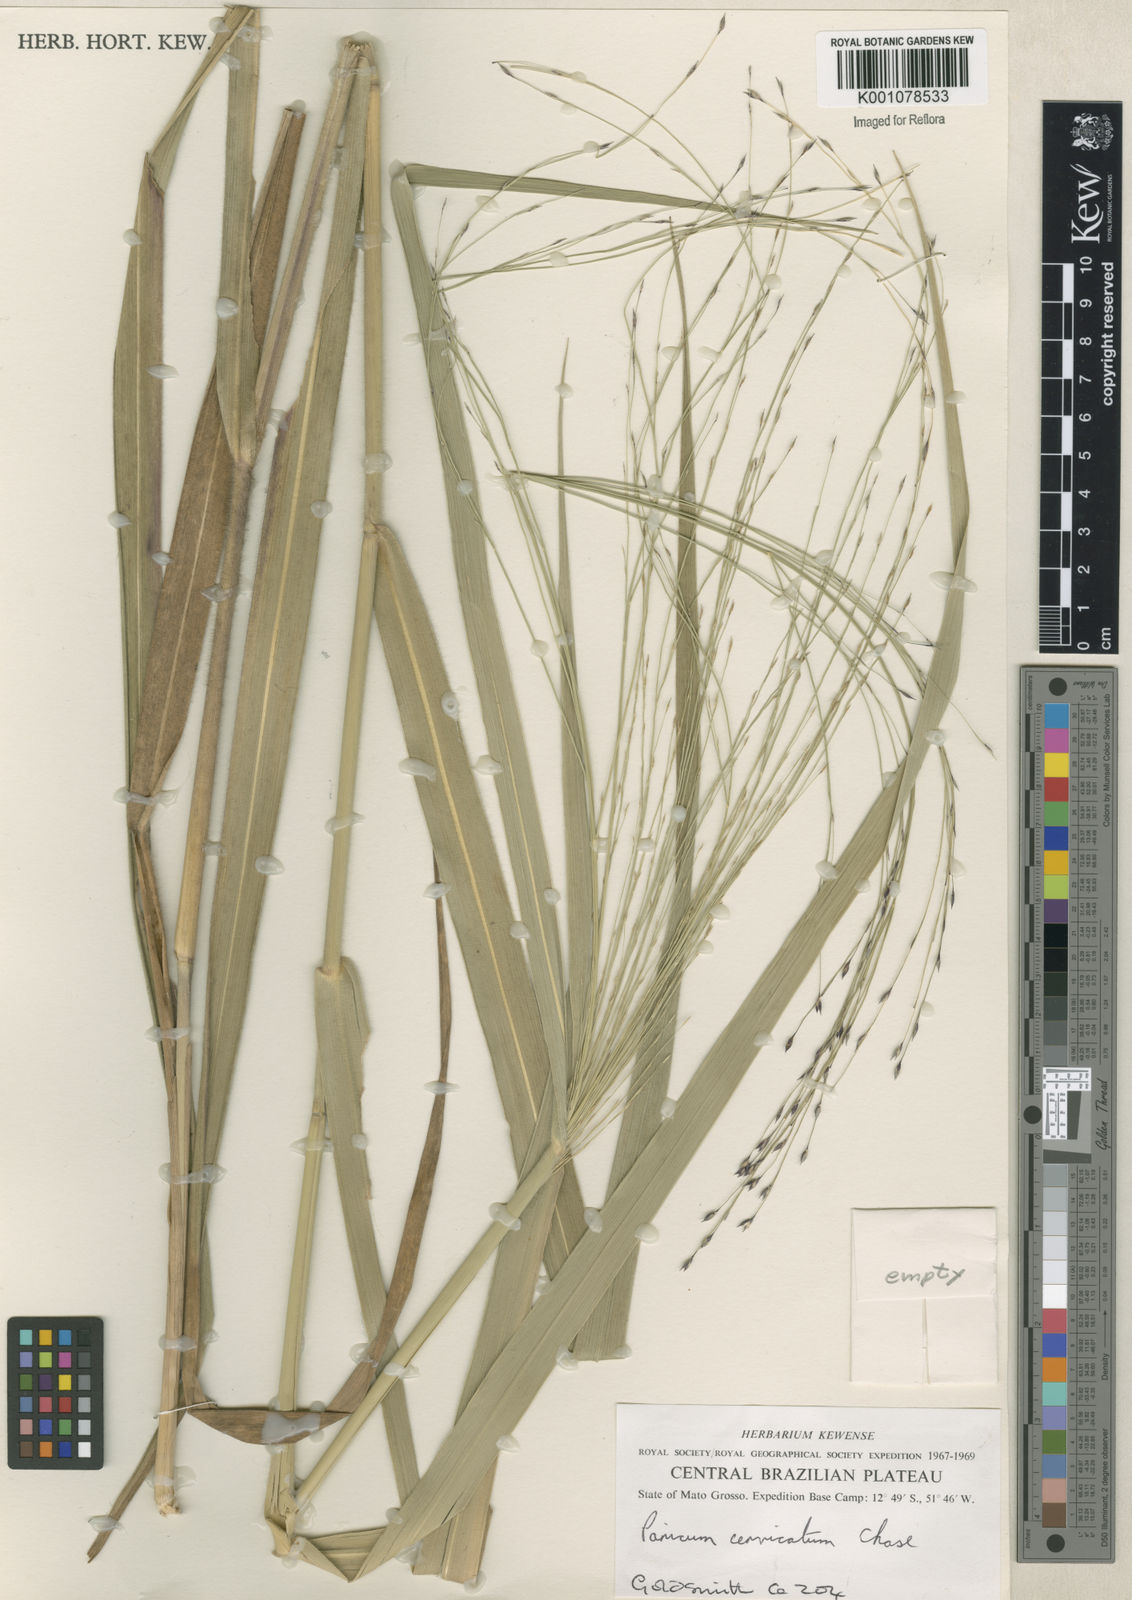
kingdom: Plantae
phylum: Tracheophyta
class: Liliopsida
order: Poales
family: Poaceae
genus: Panicum
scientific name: Panicum ligulare
